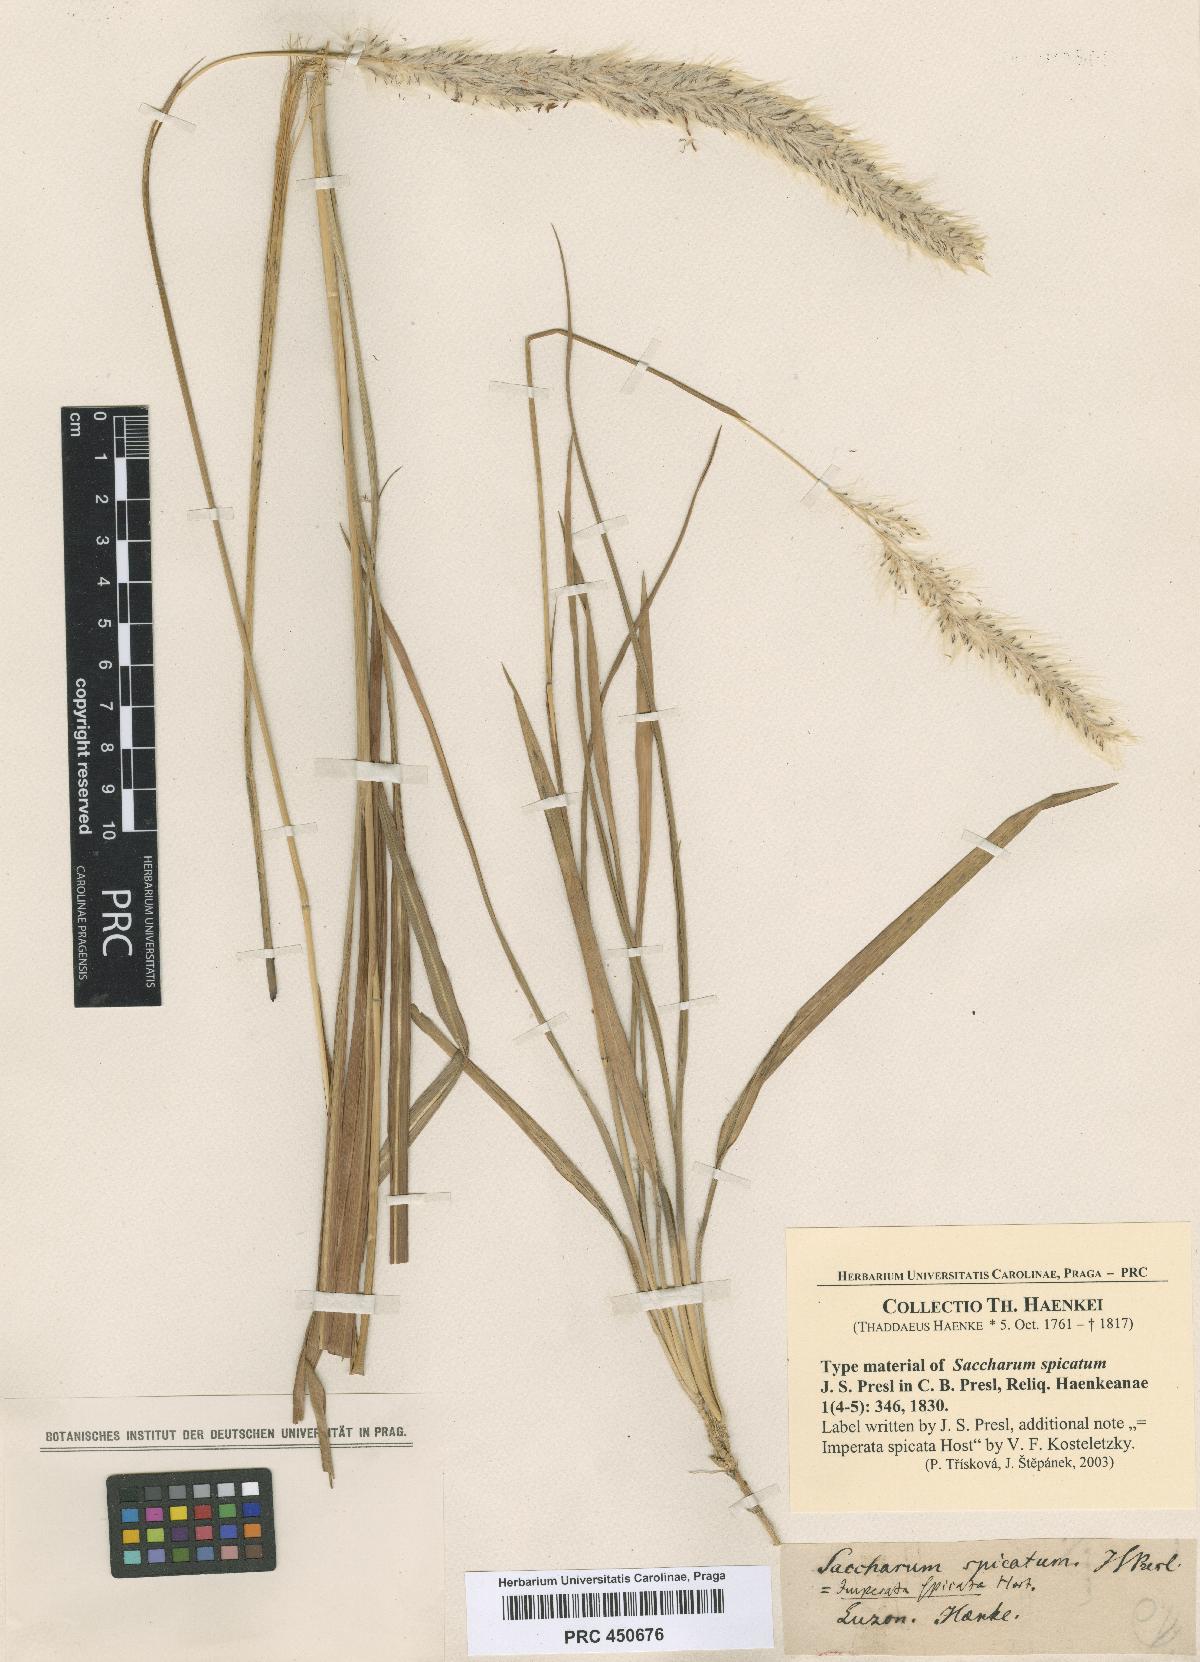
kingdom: Plantae
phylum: Tracheophyta
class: Liliopsida
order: Poales
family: Poaceae
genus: Imperata
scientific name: Imperata cylindrica
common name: Cogongrass
